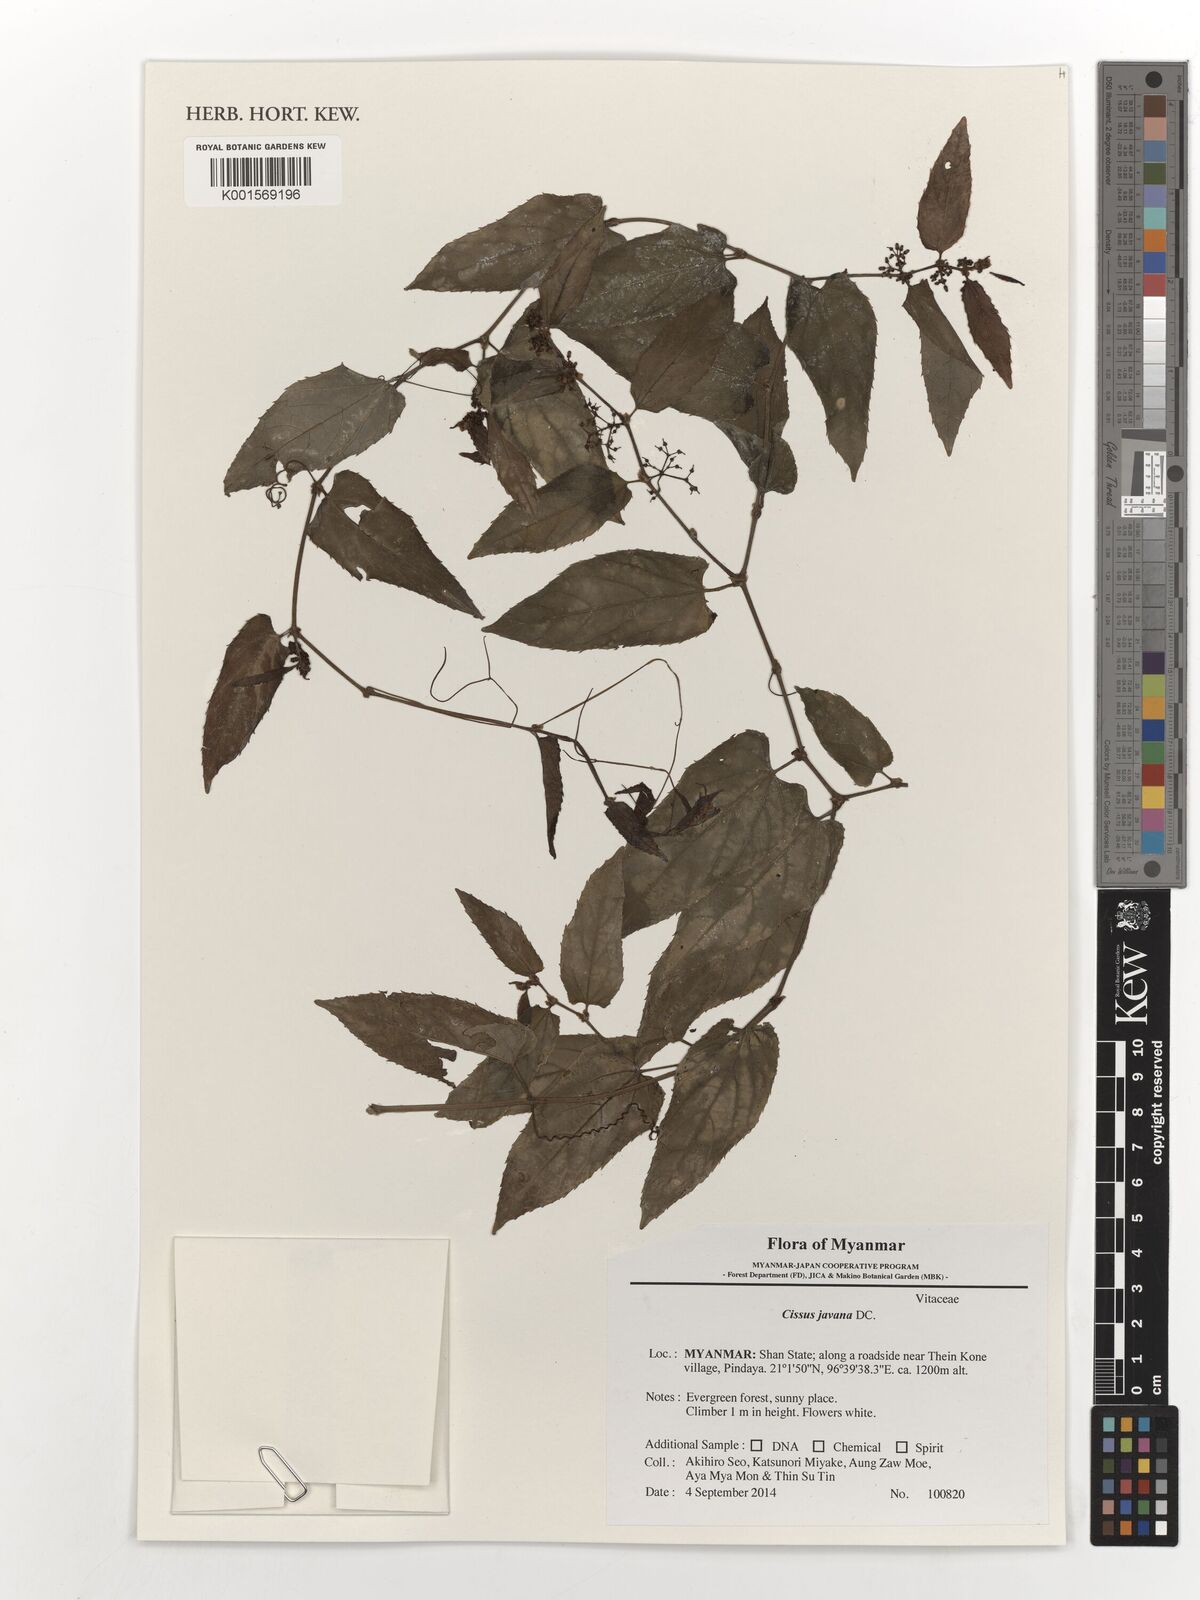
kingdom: Plantae
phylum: Tracheophyta
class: Magnoliopsida
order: Vitales
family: Vitaceae
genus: Cissus
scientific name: Cissus discolor
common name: Climbing-begonia
